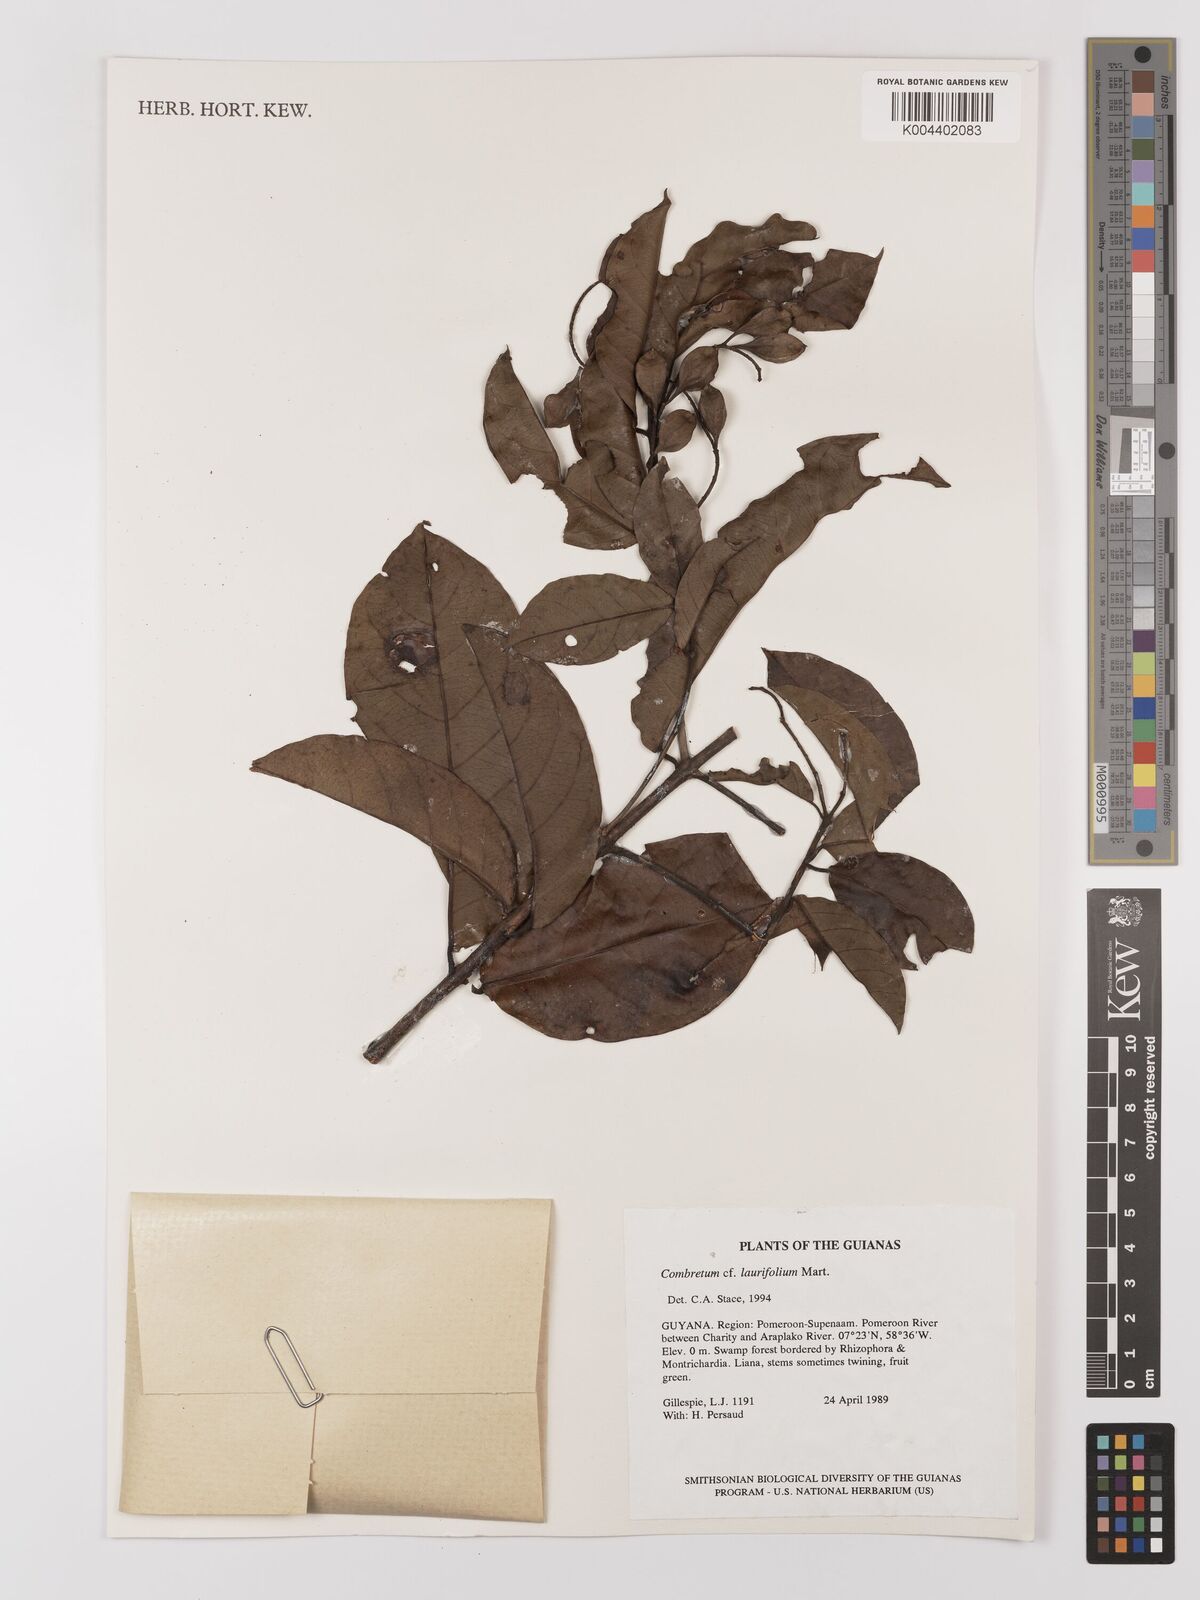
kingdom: Plantae
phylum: Tracheophyta
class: Magnoliopsida
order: Myrtales
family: Combretaceae
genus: Combretum
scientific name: Combretum
